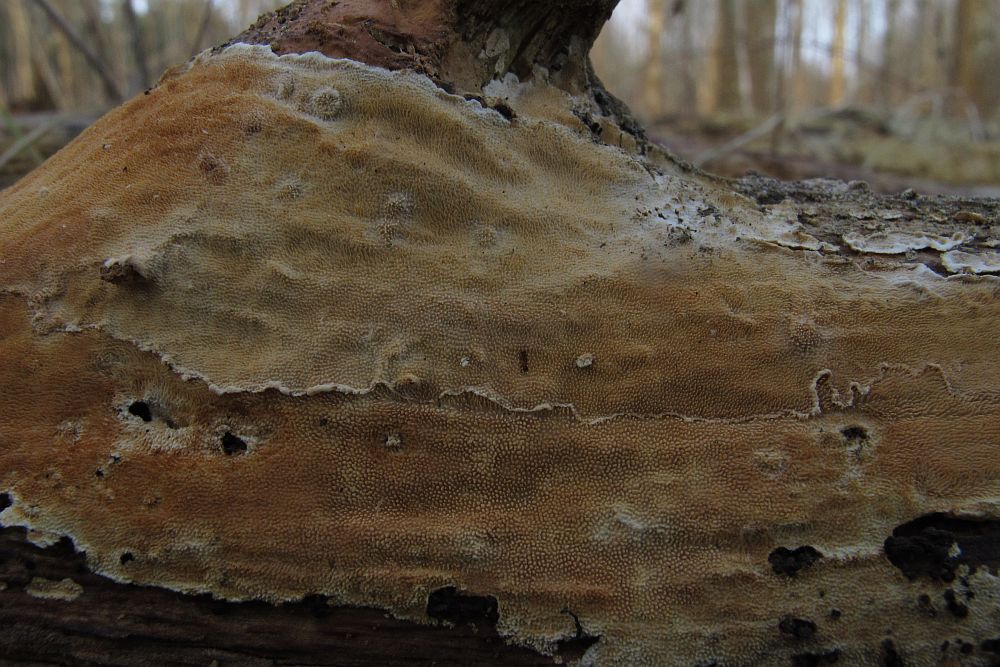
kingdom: Fungi
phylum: Basidiomycota
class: Agaricomycetes
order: Polyporales
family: Steccherinaceae
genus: Steccherinum
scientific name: Steccherinum ochraceum
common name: almindelig skønpig
